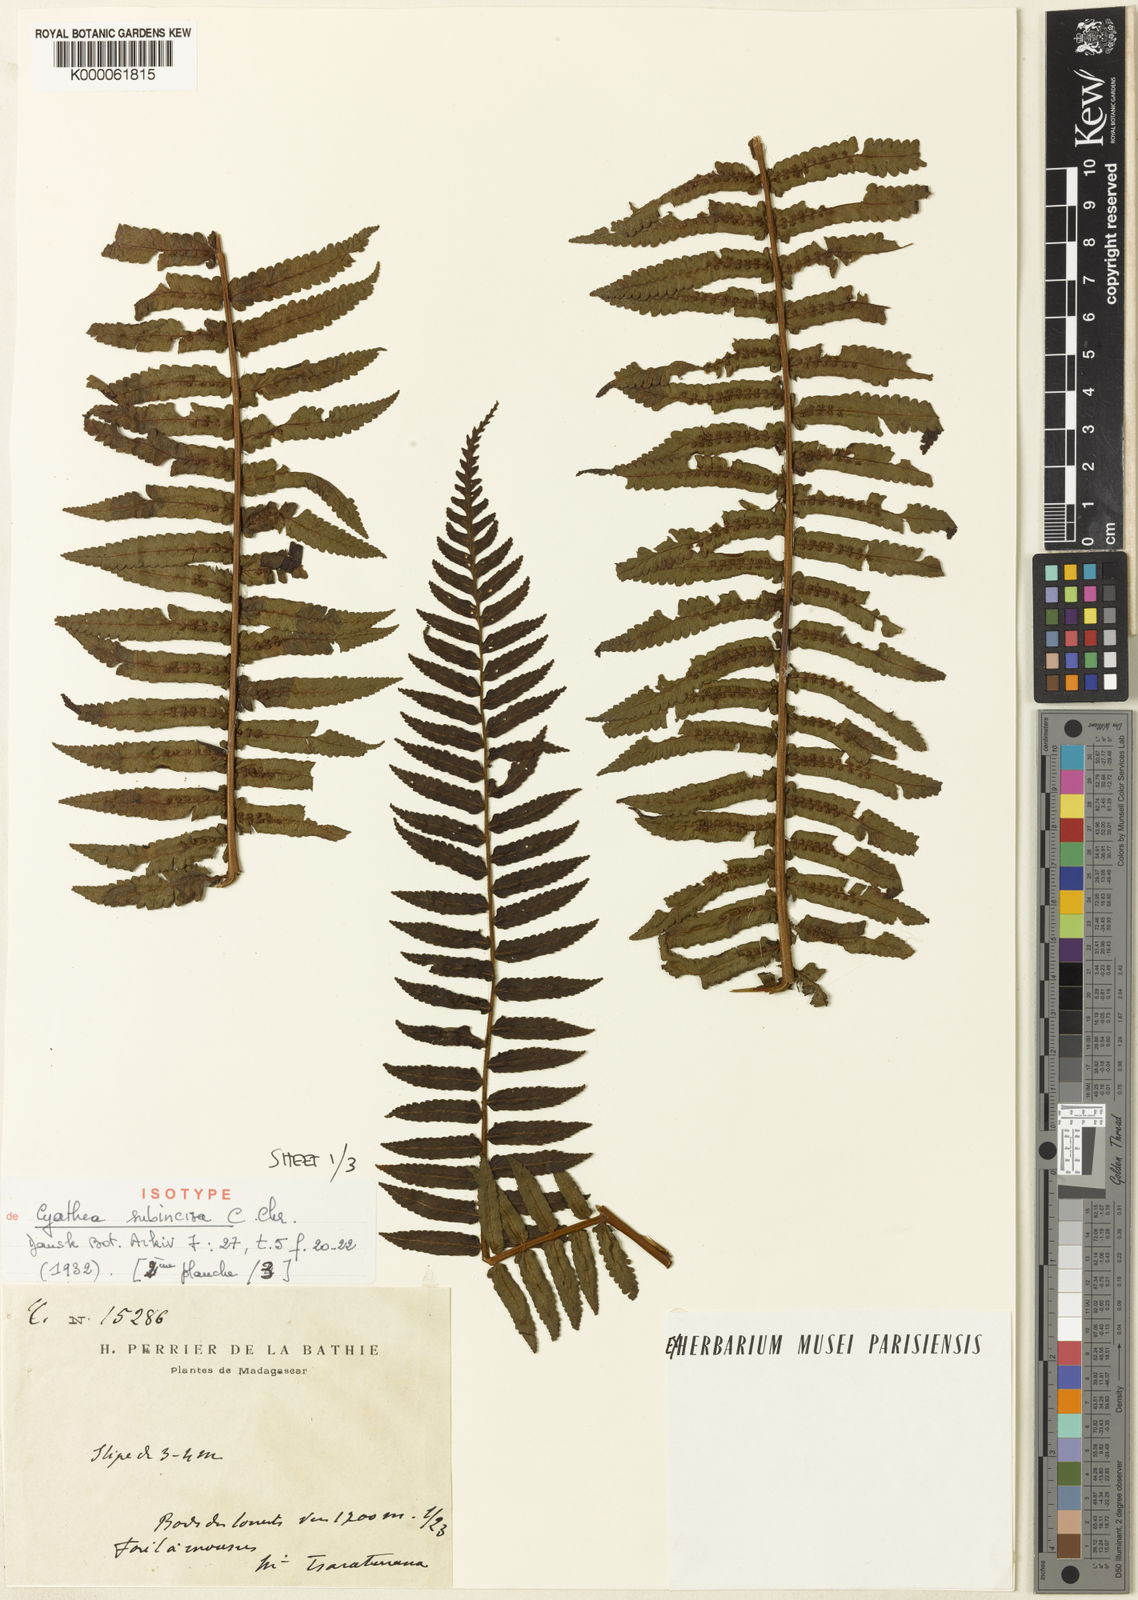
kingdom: Plantae
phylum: Tracheophyta
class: Polypodiopsida
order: Cyatheales
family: Cyatheaceae
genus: Alsophila
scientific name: Alsophila tsaratananensis
